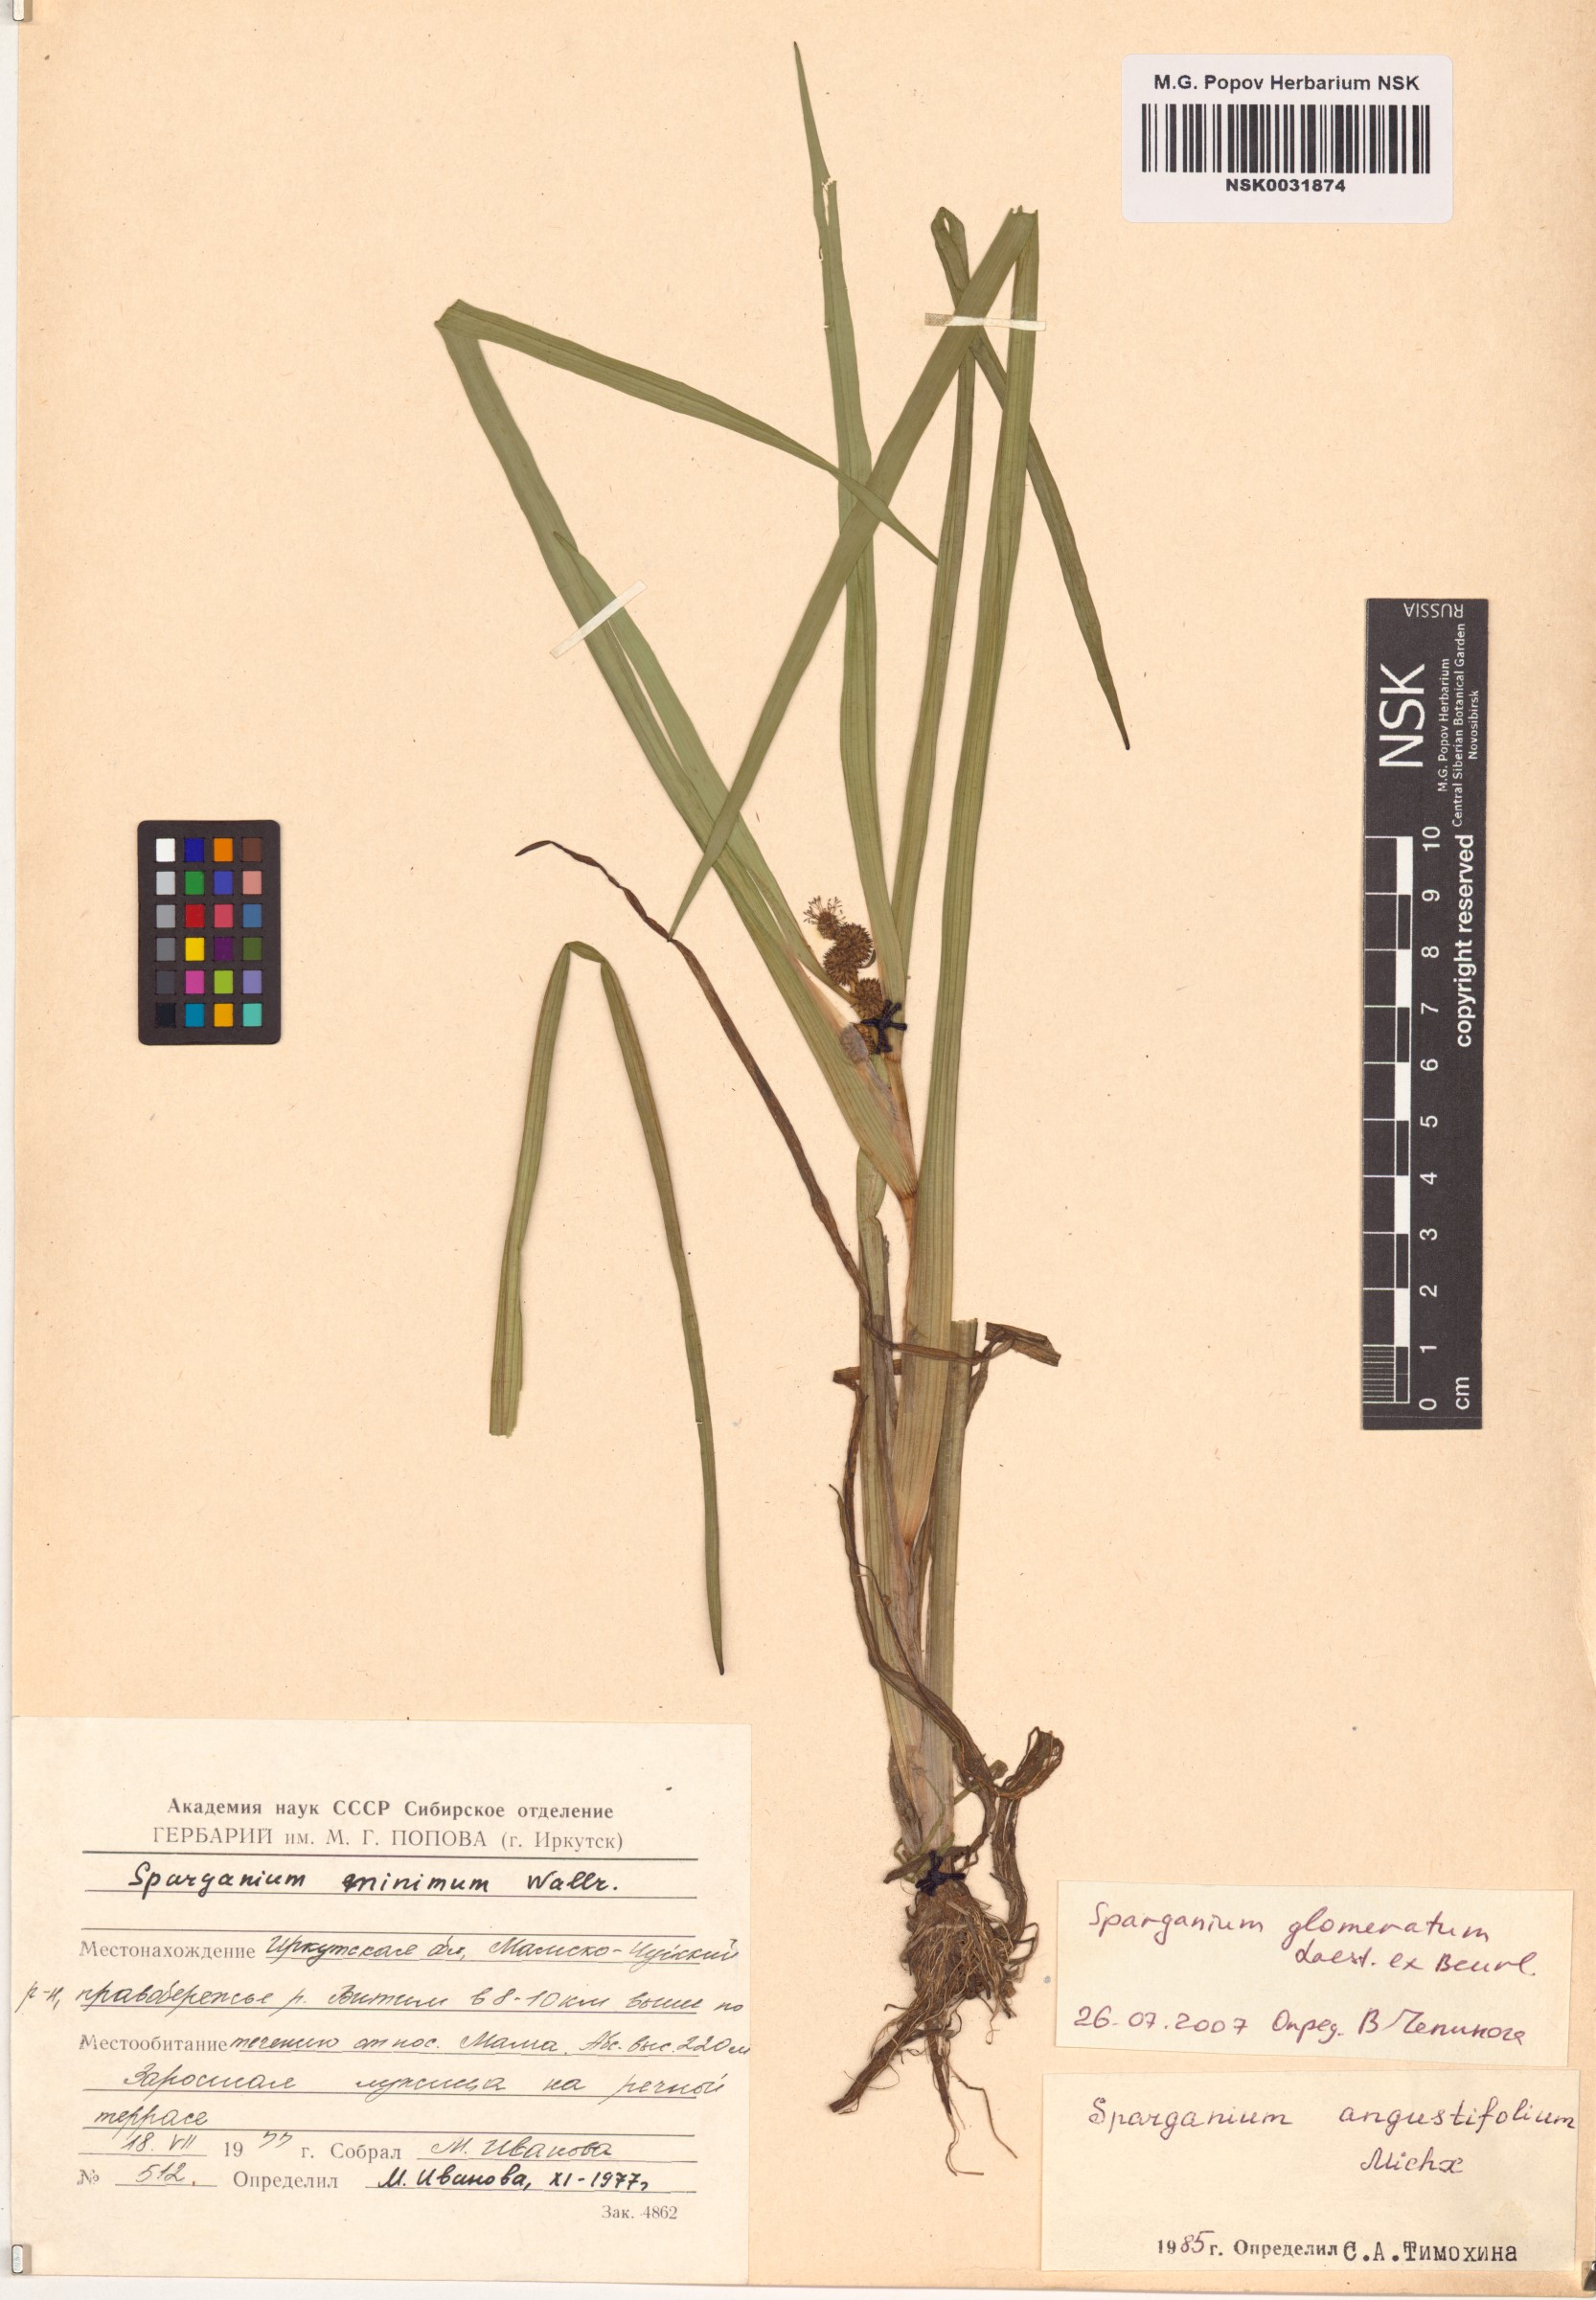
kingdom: Plantae
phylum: Tracheophyta
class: Liliopsida
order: Poales
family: Typhaceae
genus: Sparganium
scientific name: Sparganium glomeratum
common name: Clustered burreed
